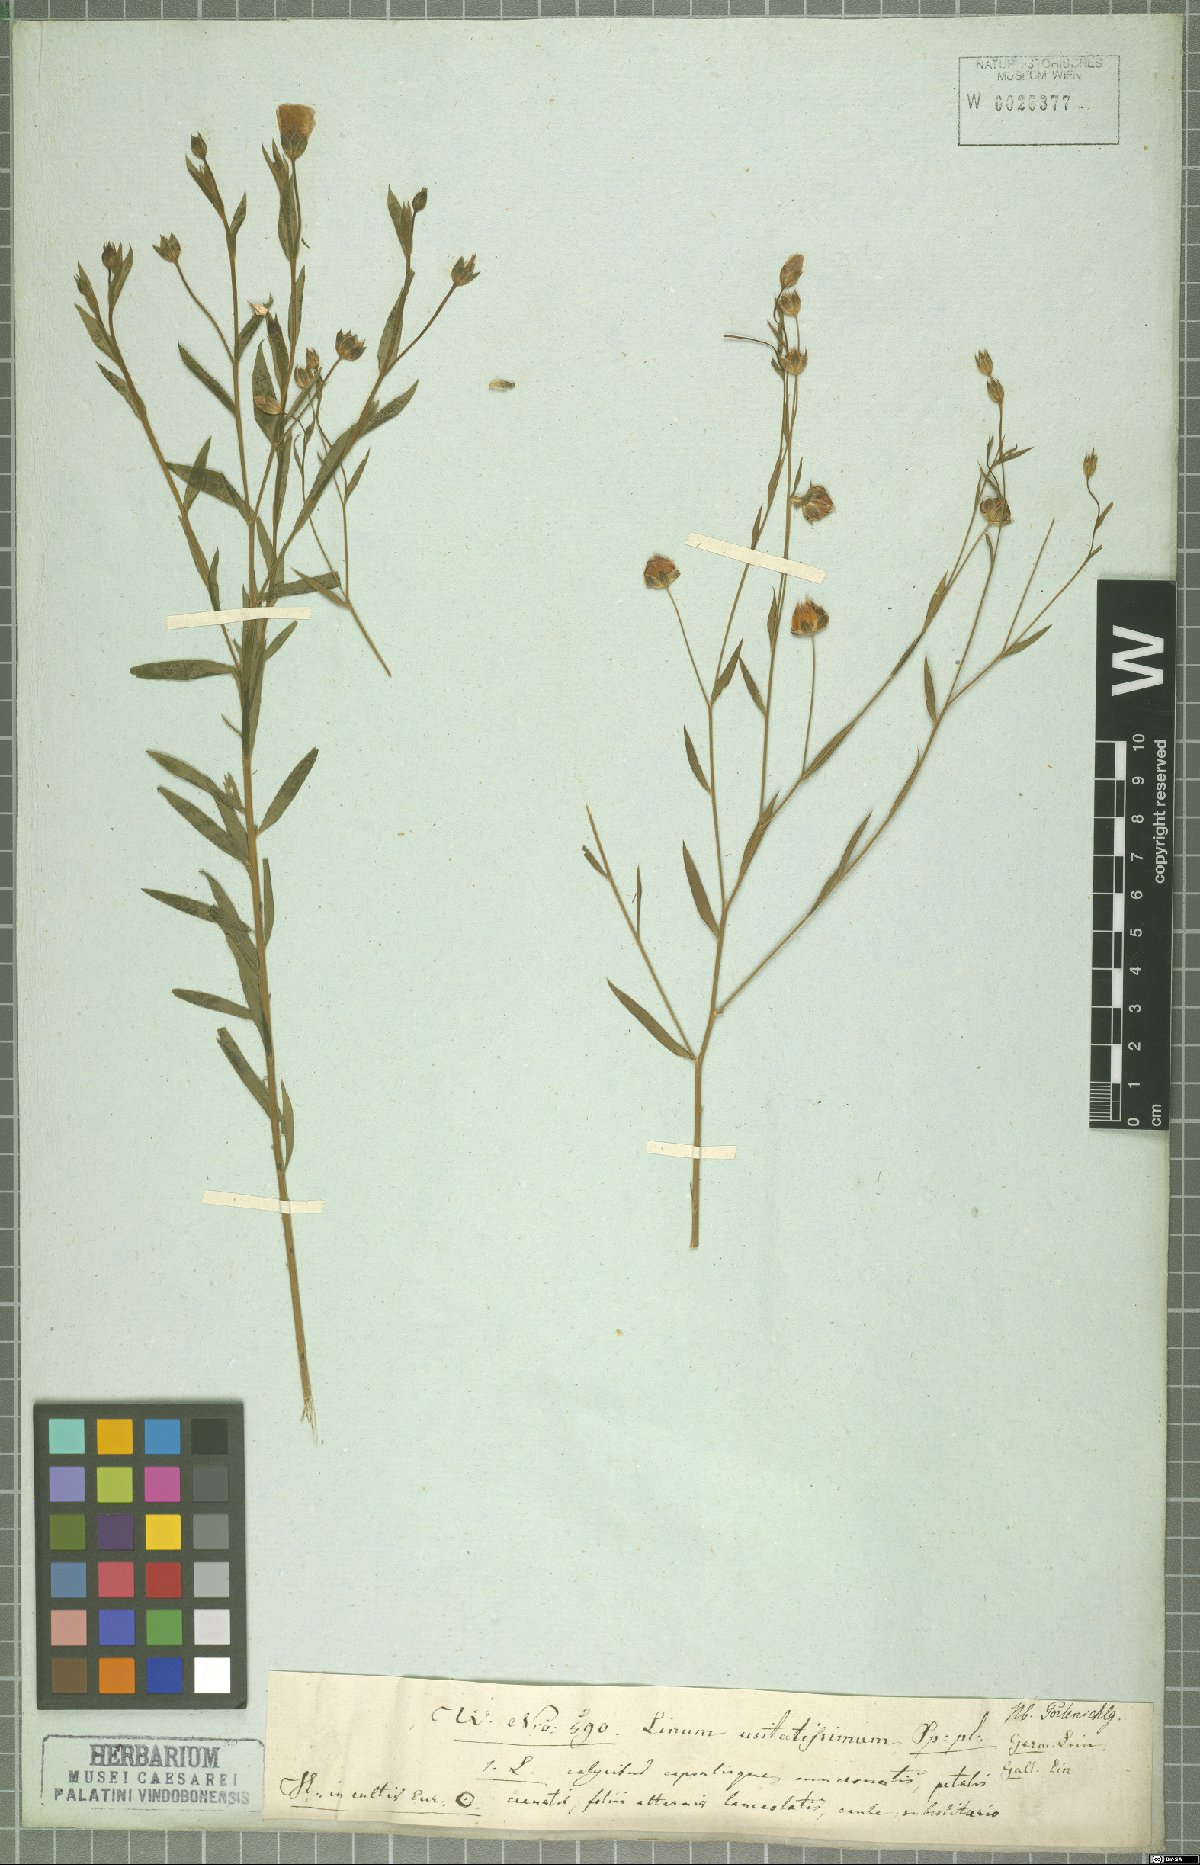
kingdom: Plantae
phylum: Tracheophyta
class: Magnoliopsida
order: Malpighiales
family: Linaceae
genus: Linum
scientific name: Linum usitatissimum
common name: Flax
